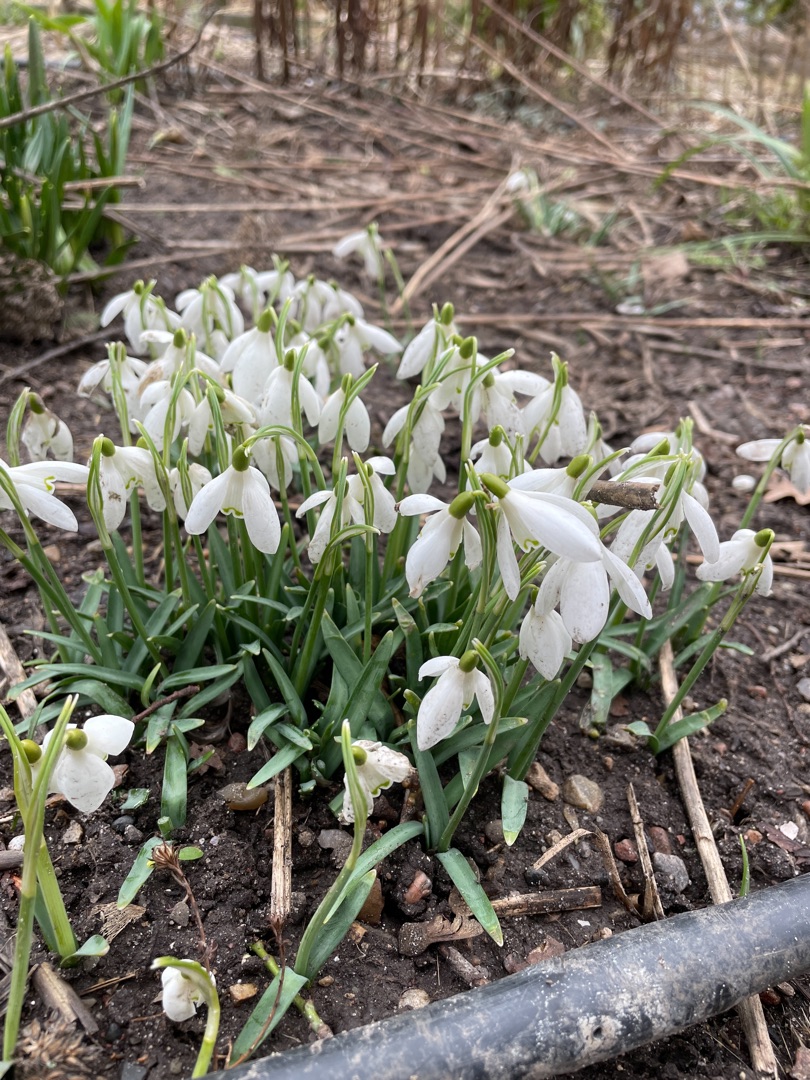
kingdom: Plantae
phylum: Tracheophyta
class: Liliopsida
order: Asparagales
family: Amaryllidaceae
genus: Galanthus
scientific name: Galanthus nivalis
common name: Vintergæk
